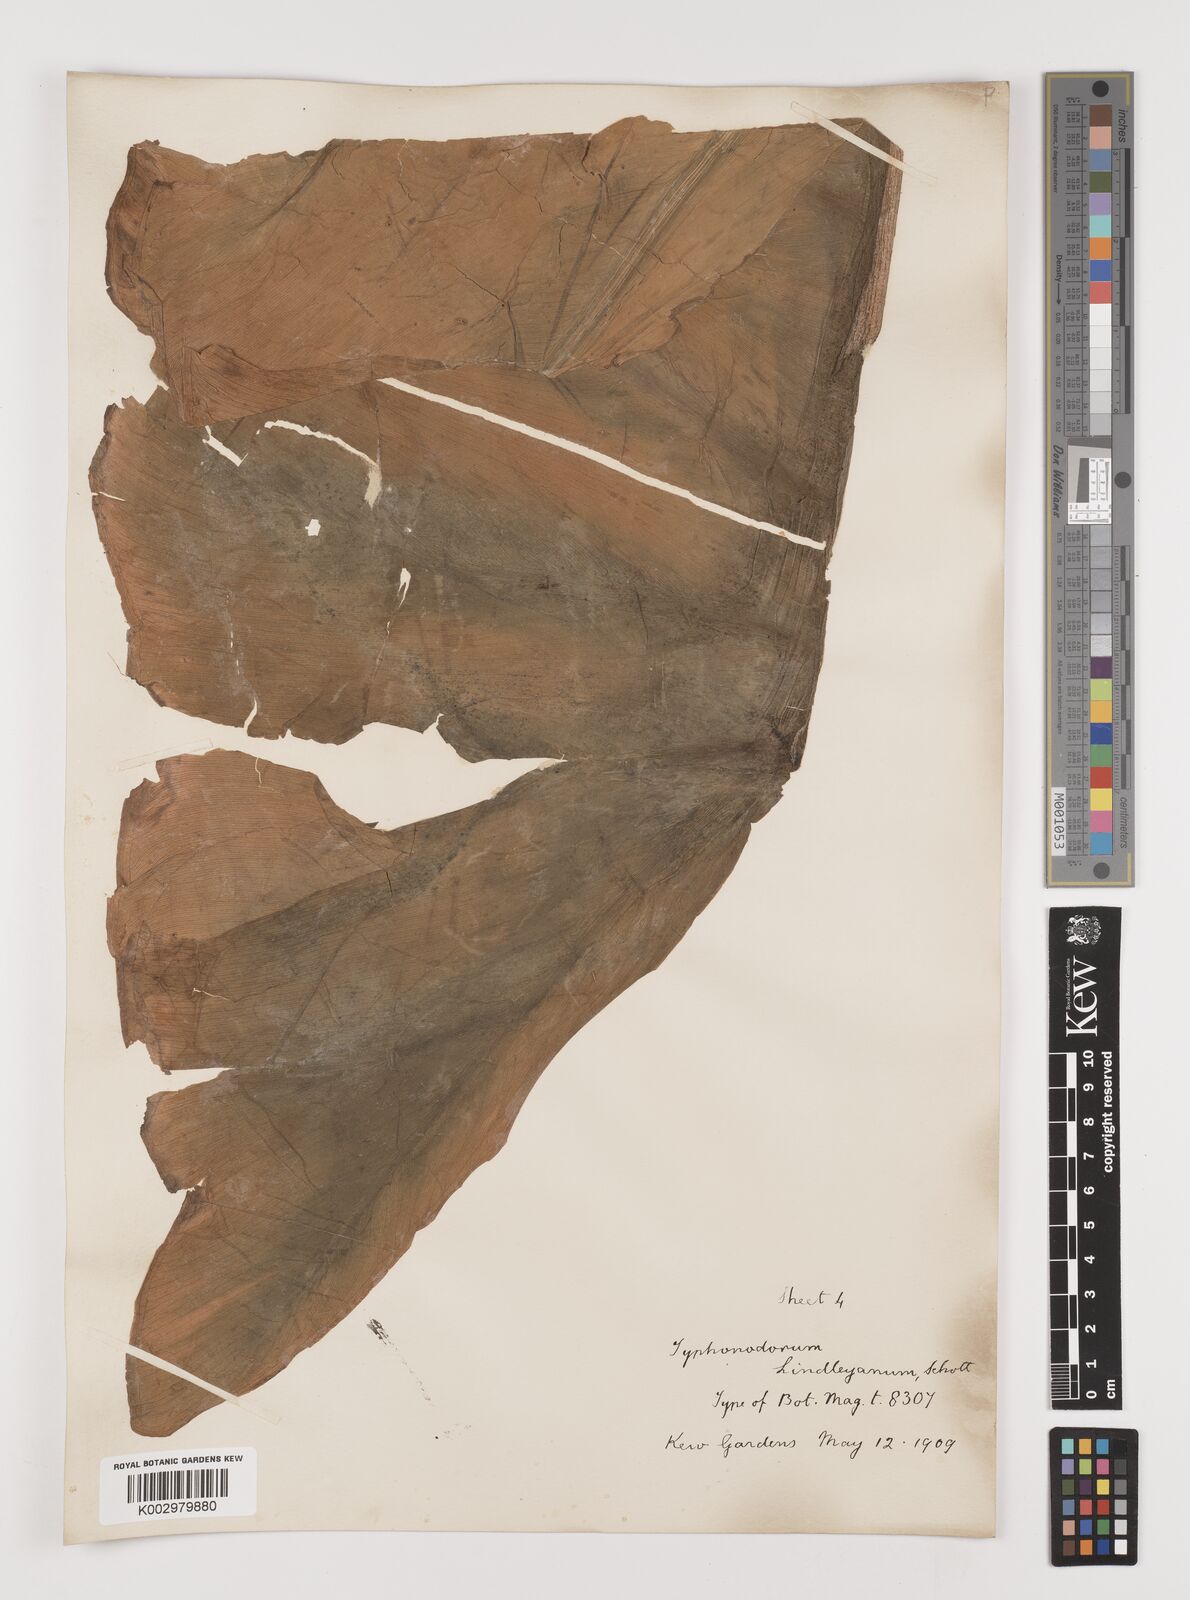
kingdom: Plantae
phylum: Tracheophyta
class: Liliopsida
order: Alismatales
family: Araceae
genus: Typhonodorum
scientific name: Typhonodorum lindleyanum
